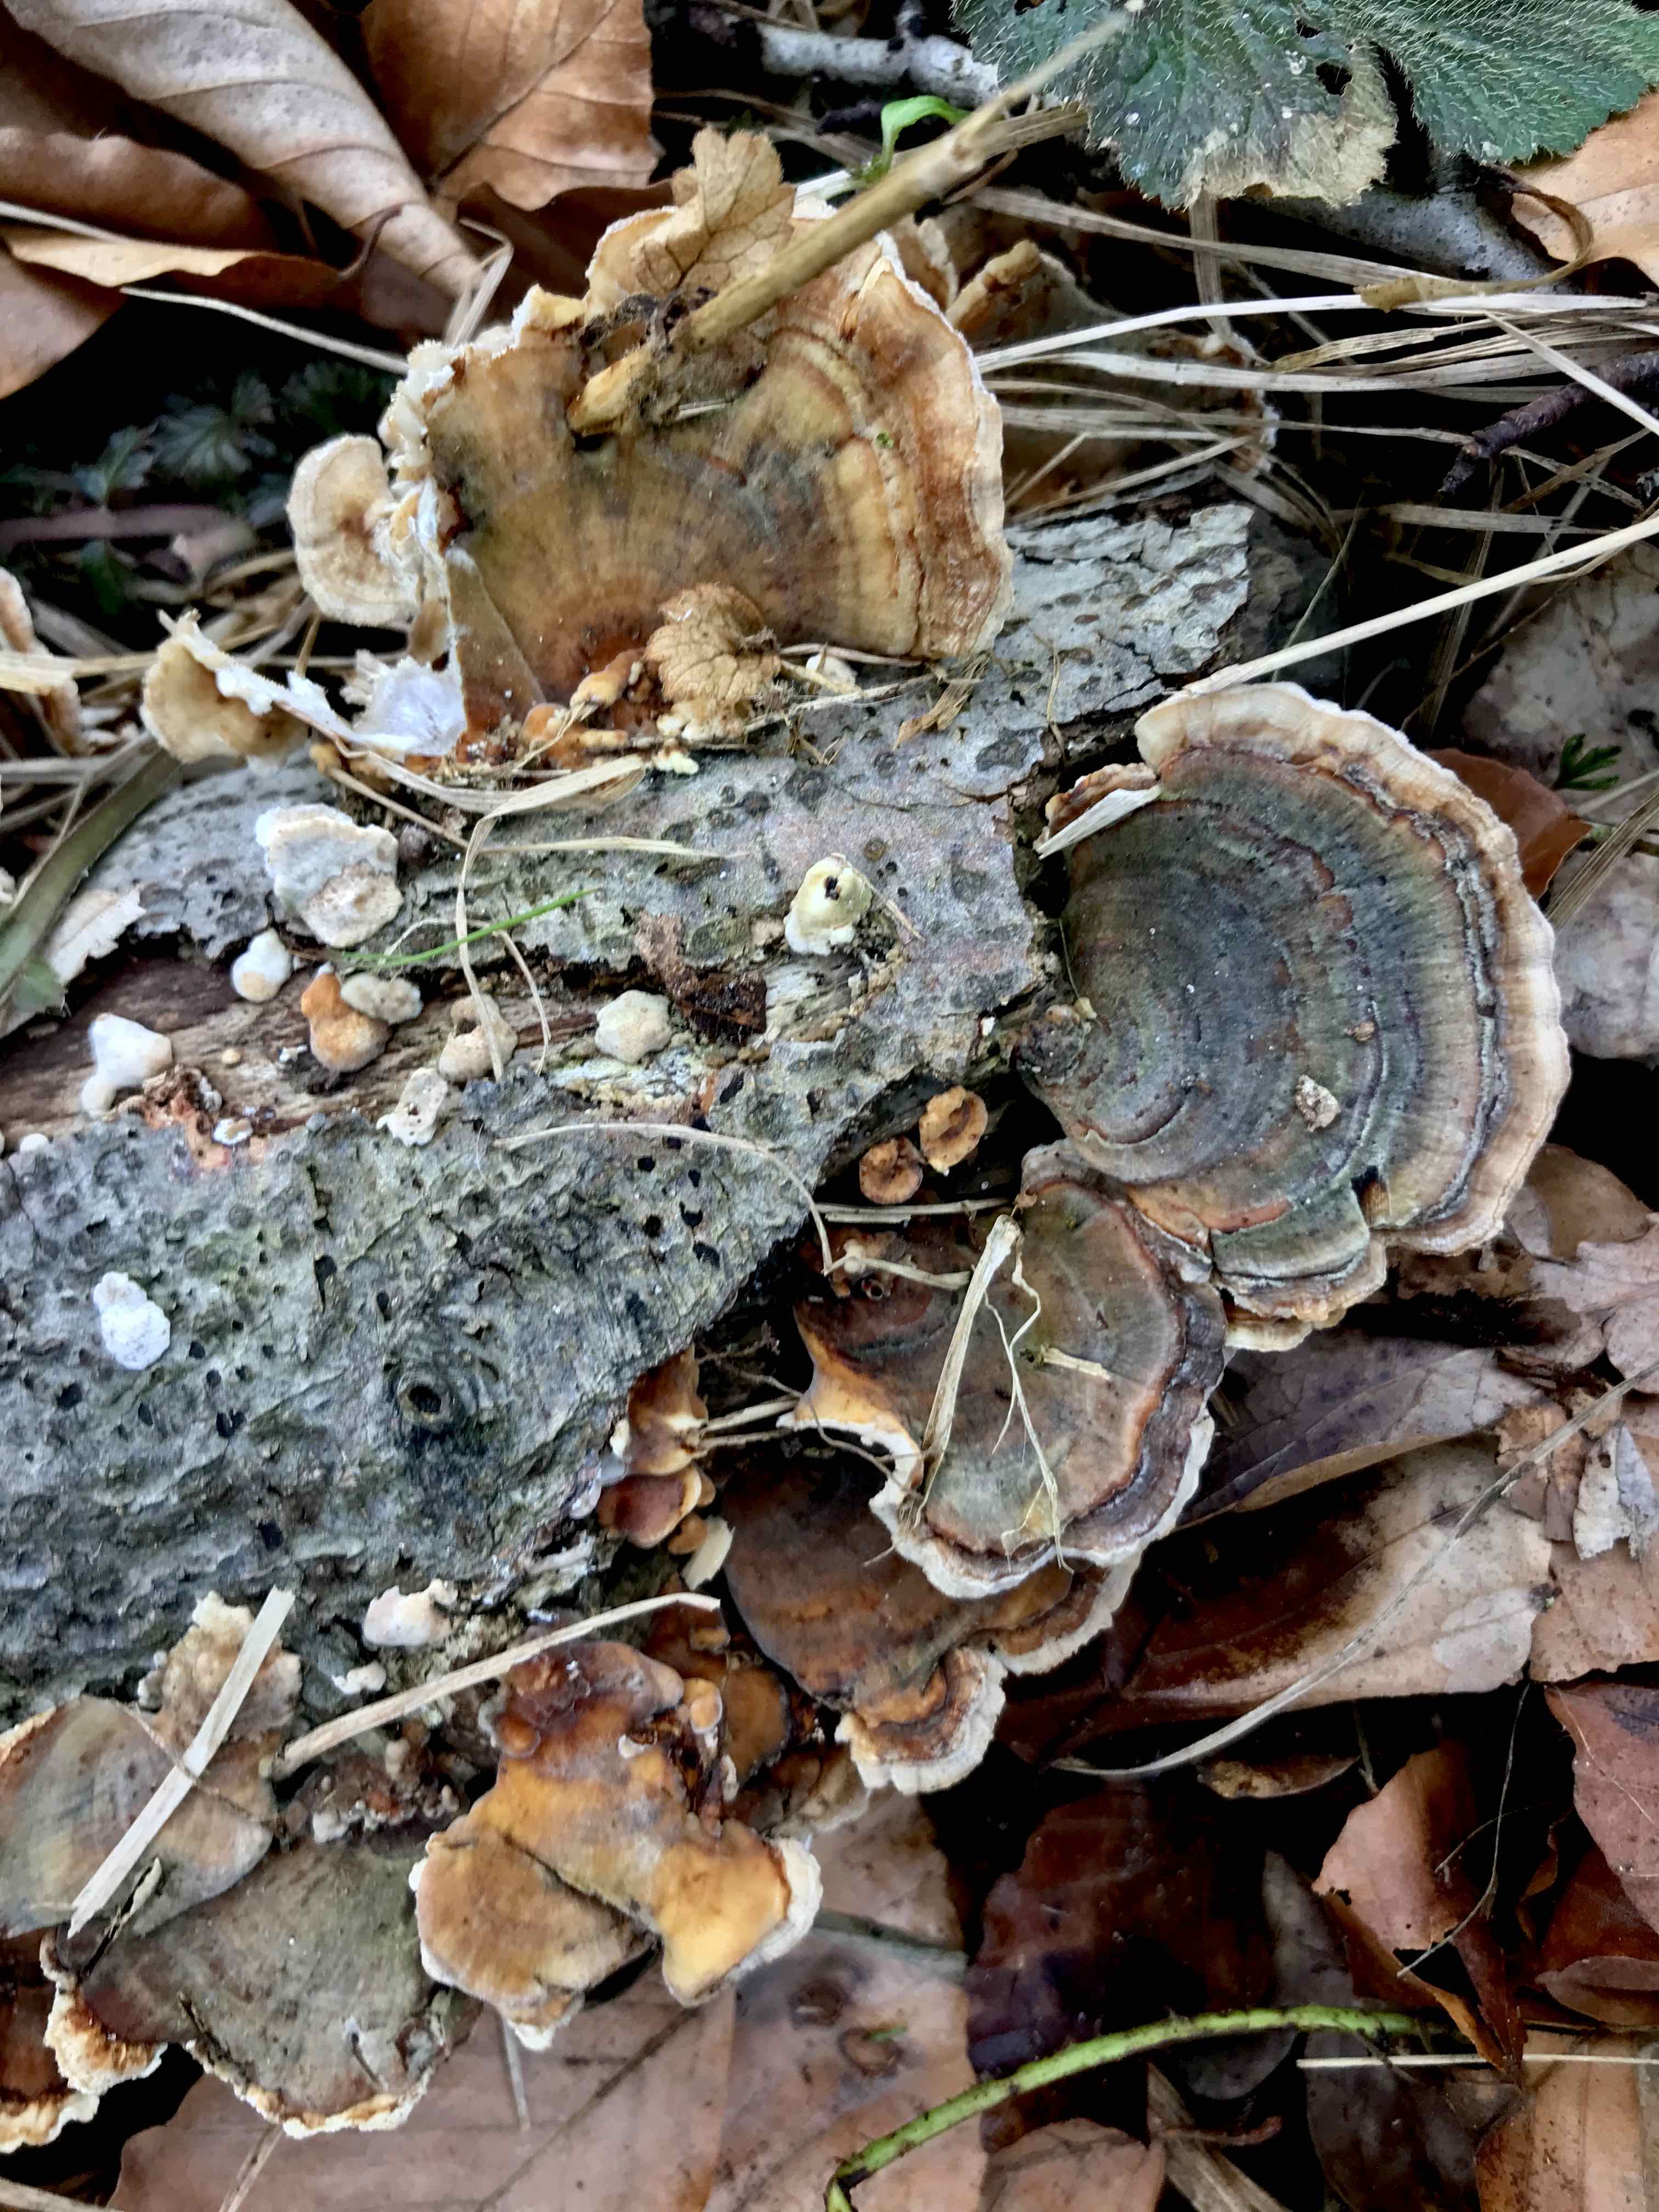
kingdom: Fungi
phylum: Basidiomycota
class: Agaricomycetes
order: Polyporales
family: Polyporaceae
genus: Trametes
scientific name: Trametes versicolor
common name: broget læderporesvamp
